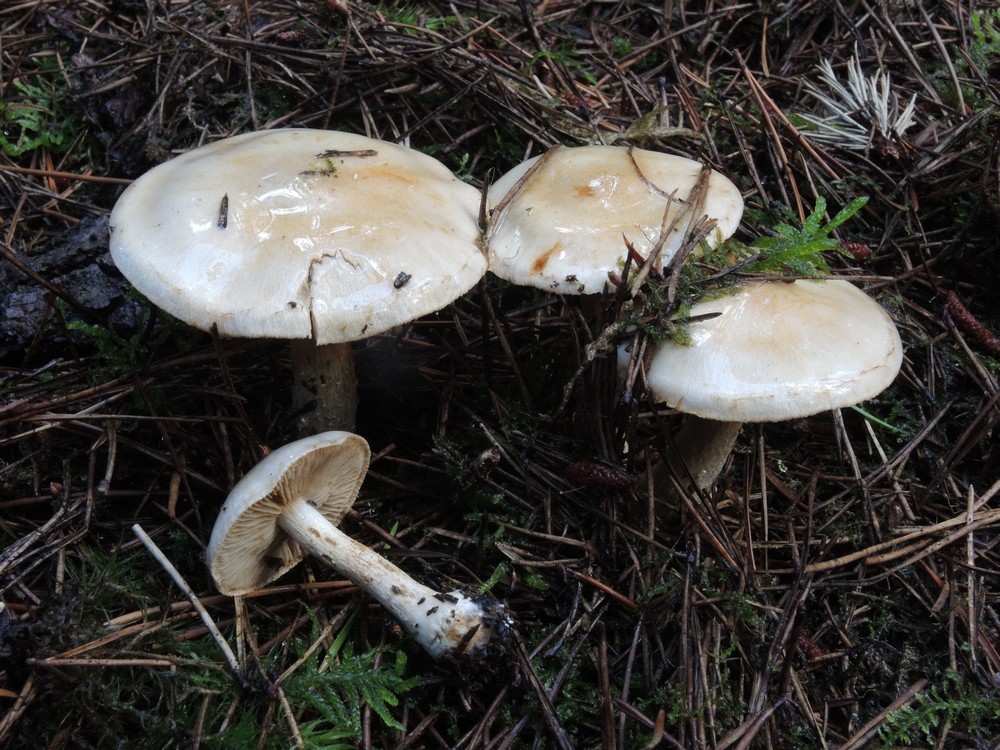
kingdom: Fungi
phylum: Basidiomycota
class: Agaricomycetes
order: Agaricales
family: Cortinariaceae
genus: Cortinarius
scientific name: Cortinarius
